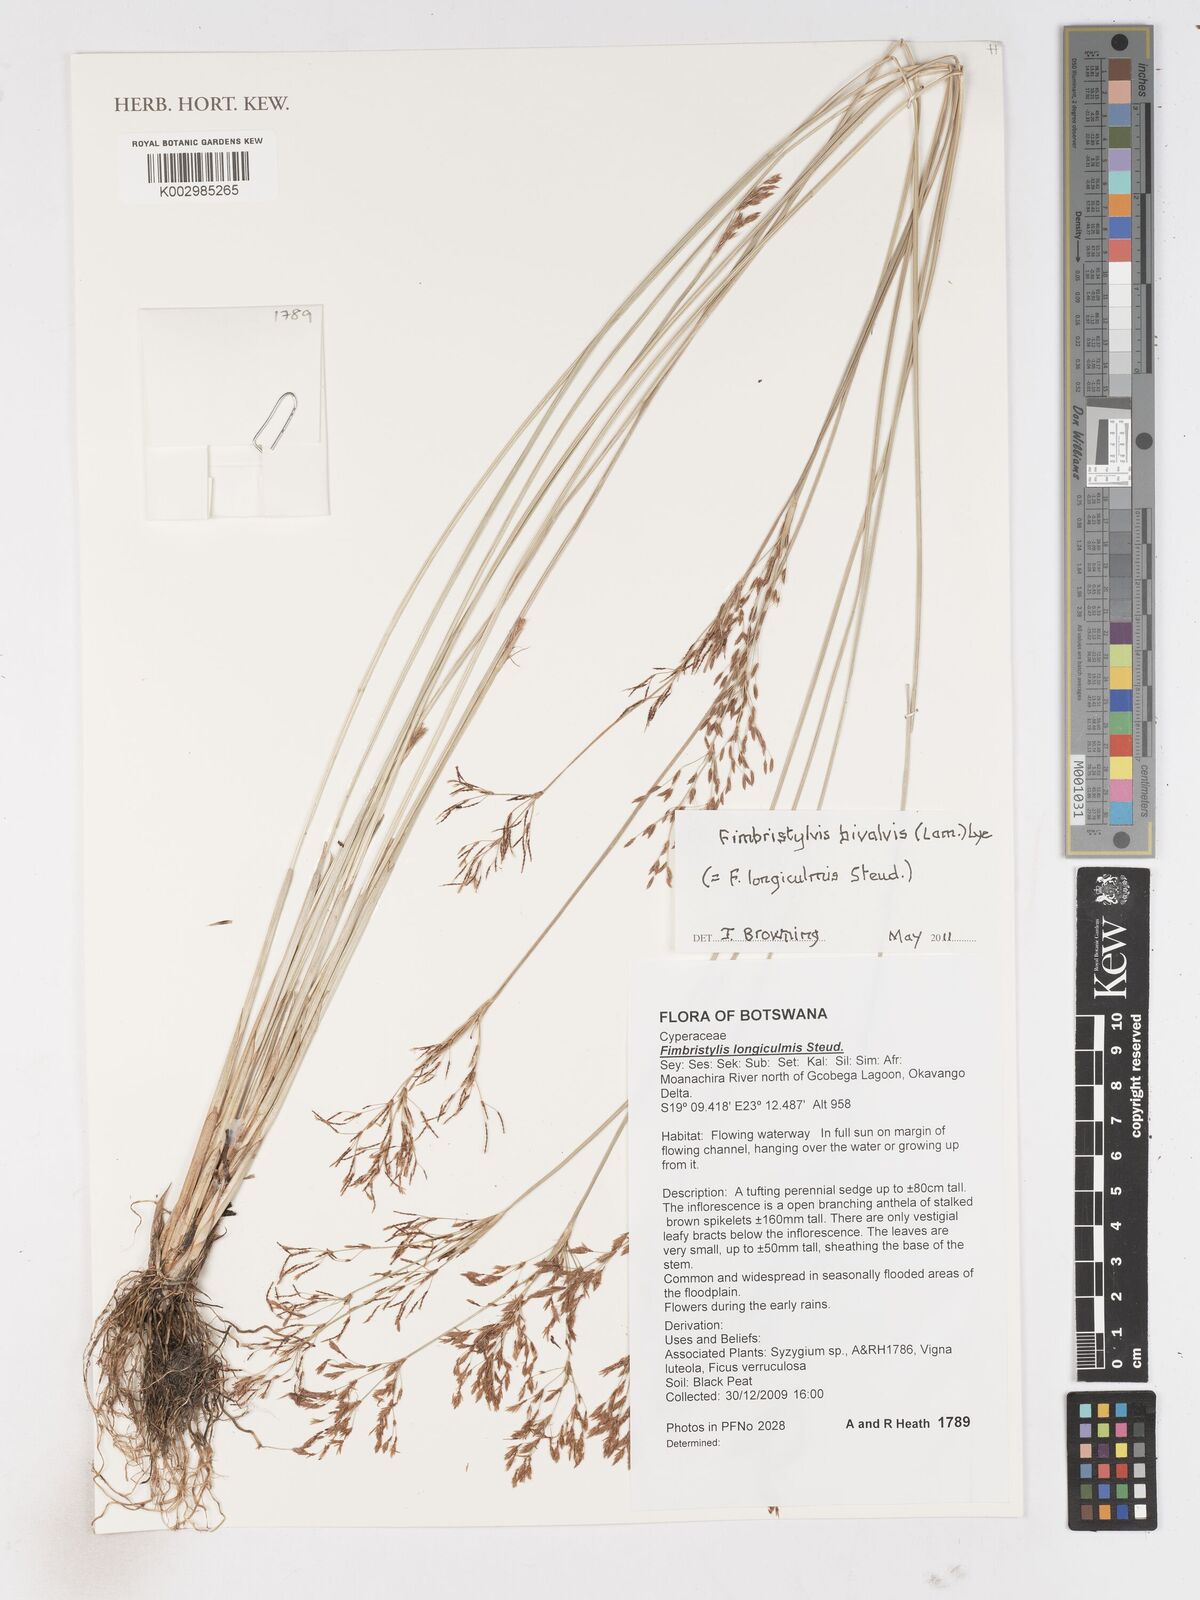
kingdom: Plantae
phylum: Tracheophyta
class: Liliopsida
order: Poales
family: Cyperaceae
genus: Fimbristylis
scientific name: Fimbristylis bivalvis
